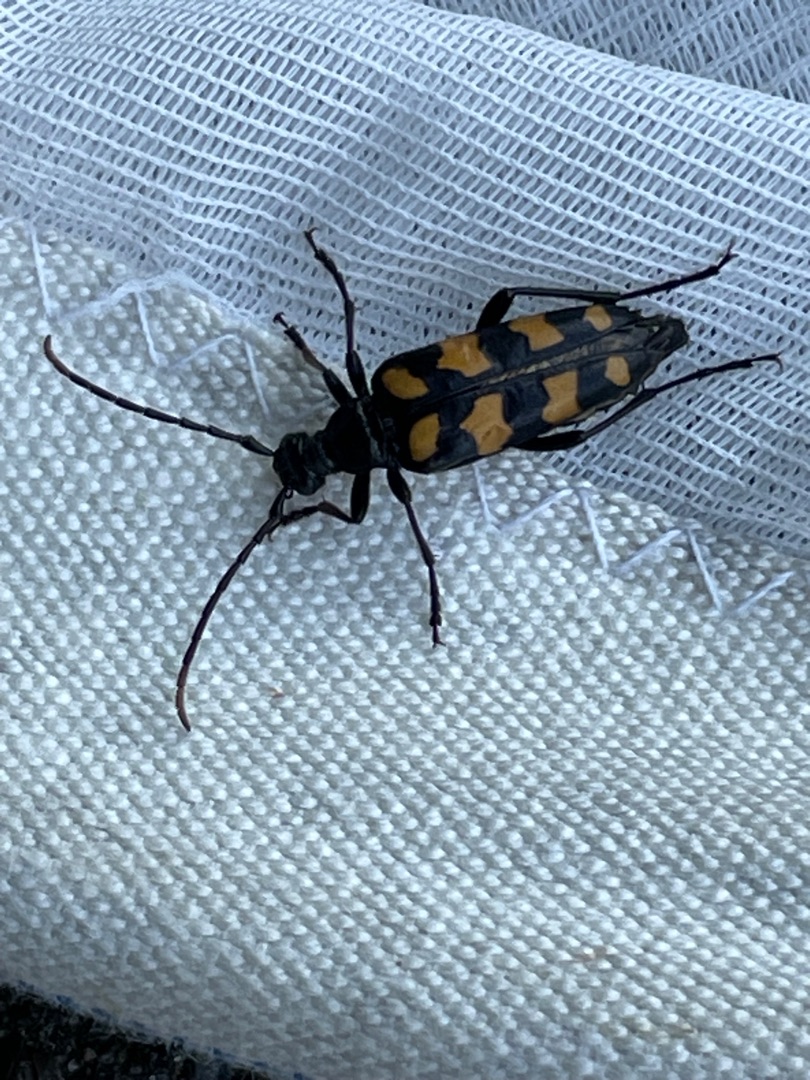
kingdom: Animalia
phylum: Arthropoda
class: Insecta
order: Coleoptera
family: Cerambycidae
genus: Leptura
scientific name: Leptura quadrifasciata
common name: Firebåndet blomsterbuk
